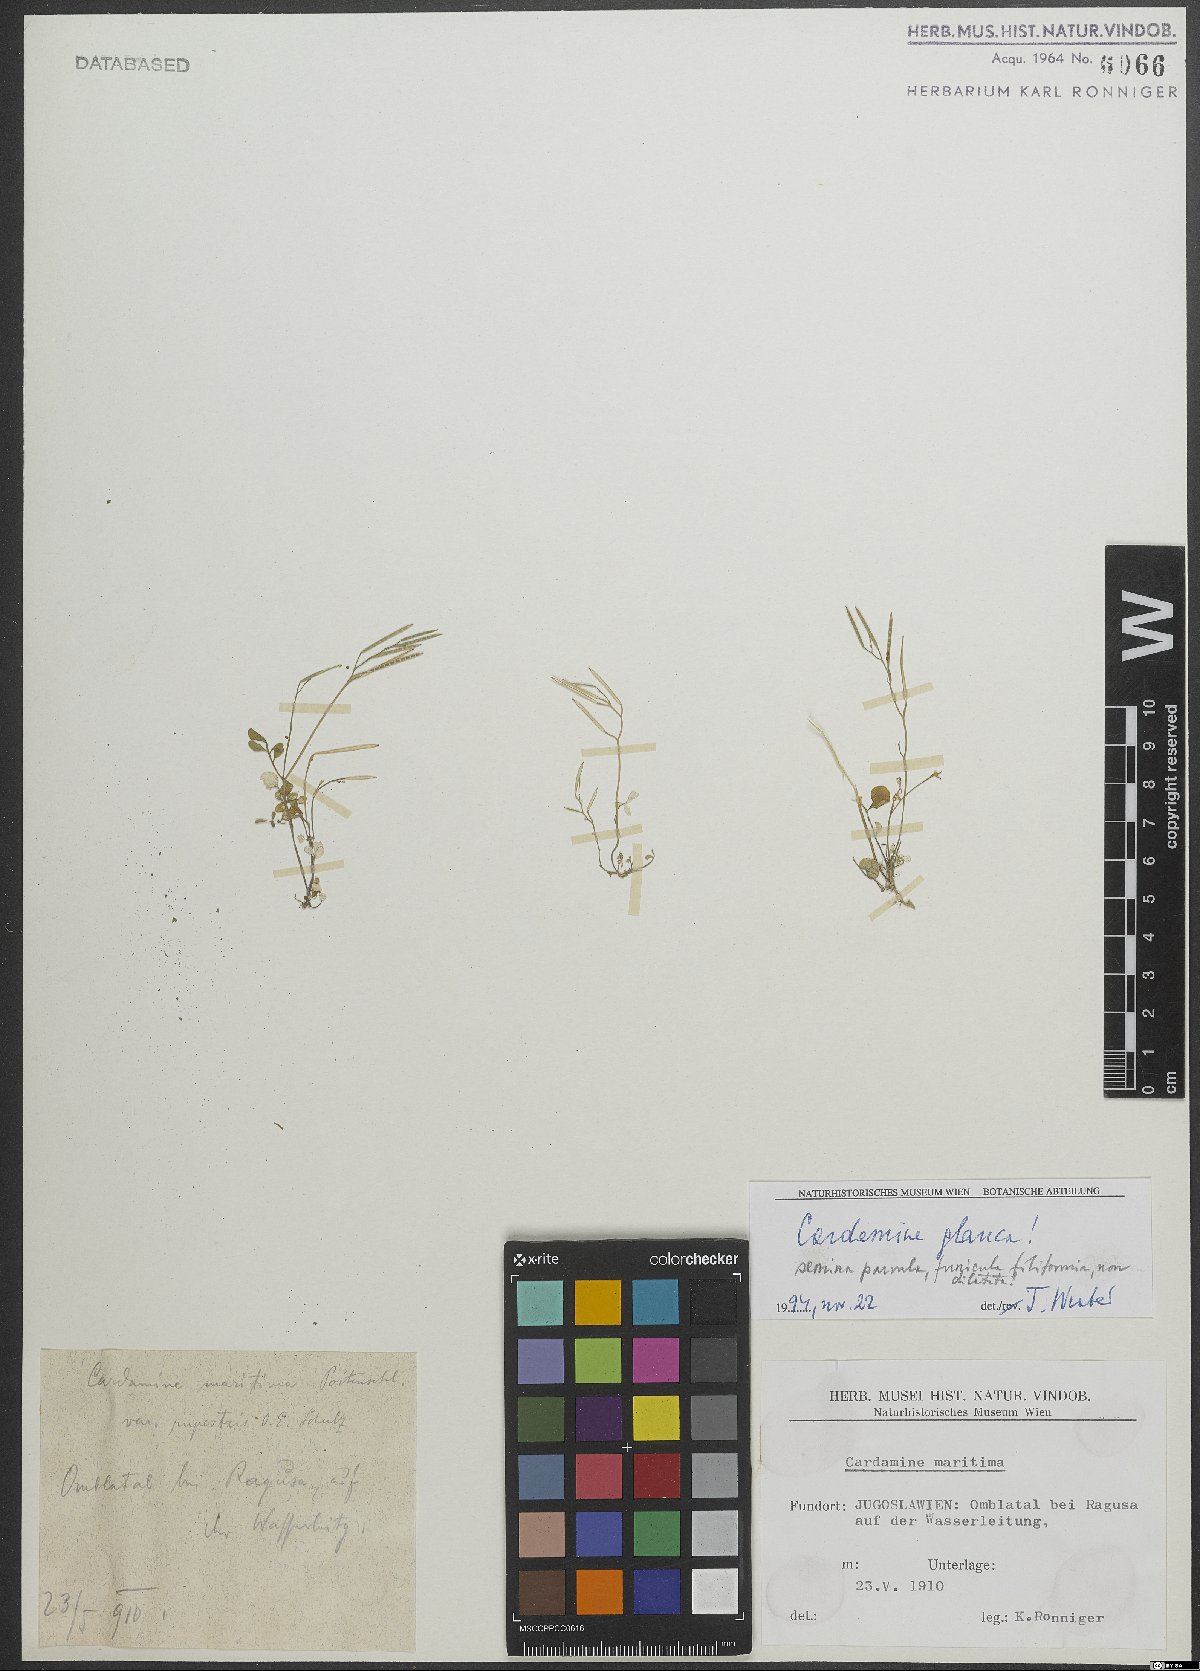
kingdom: Plantae
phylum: Tracheophyta
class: Magnoliopsida
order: Brassicales
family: Brassicaceae
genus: Cardamine
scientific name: Cardamine glauca
